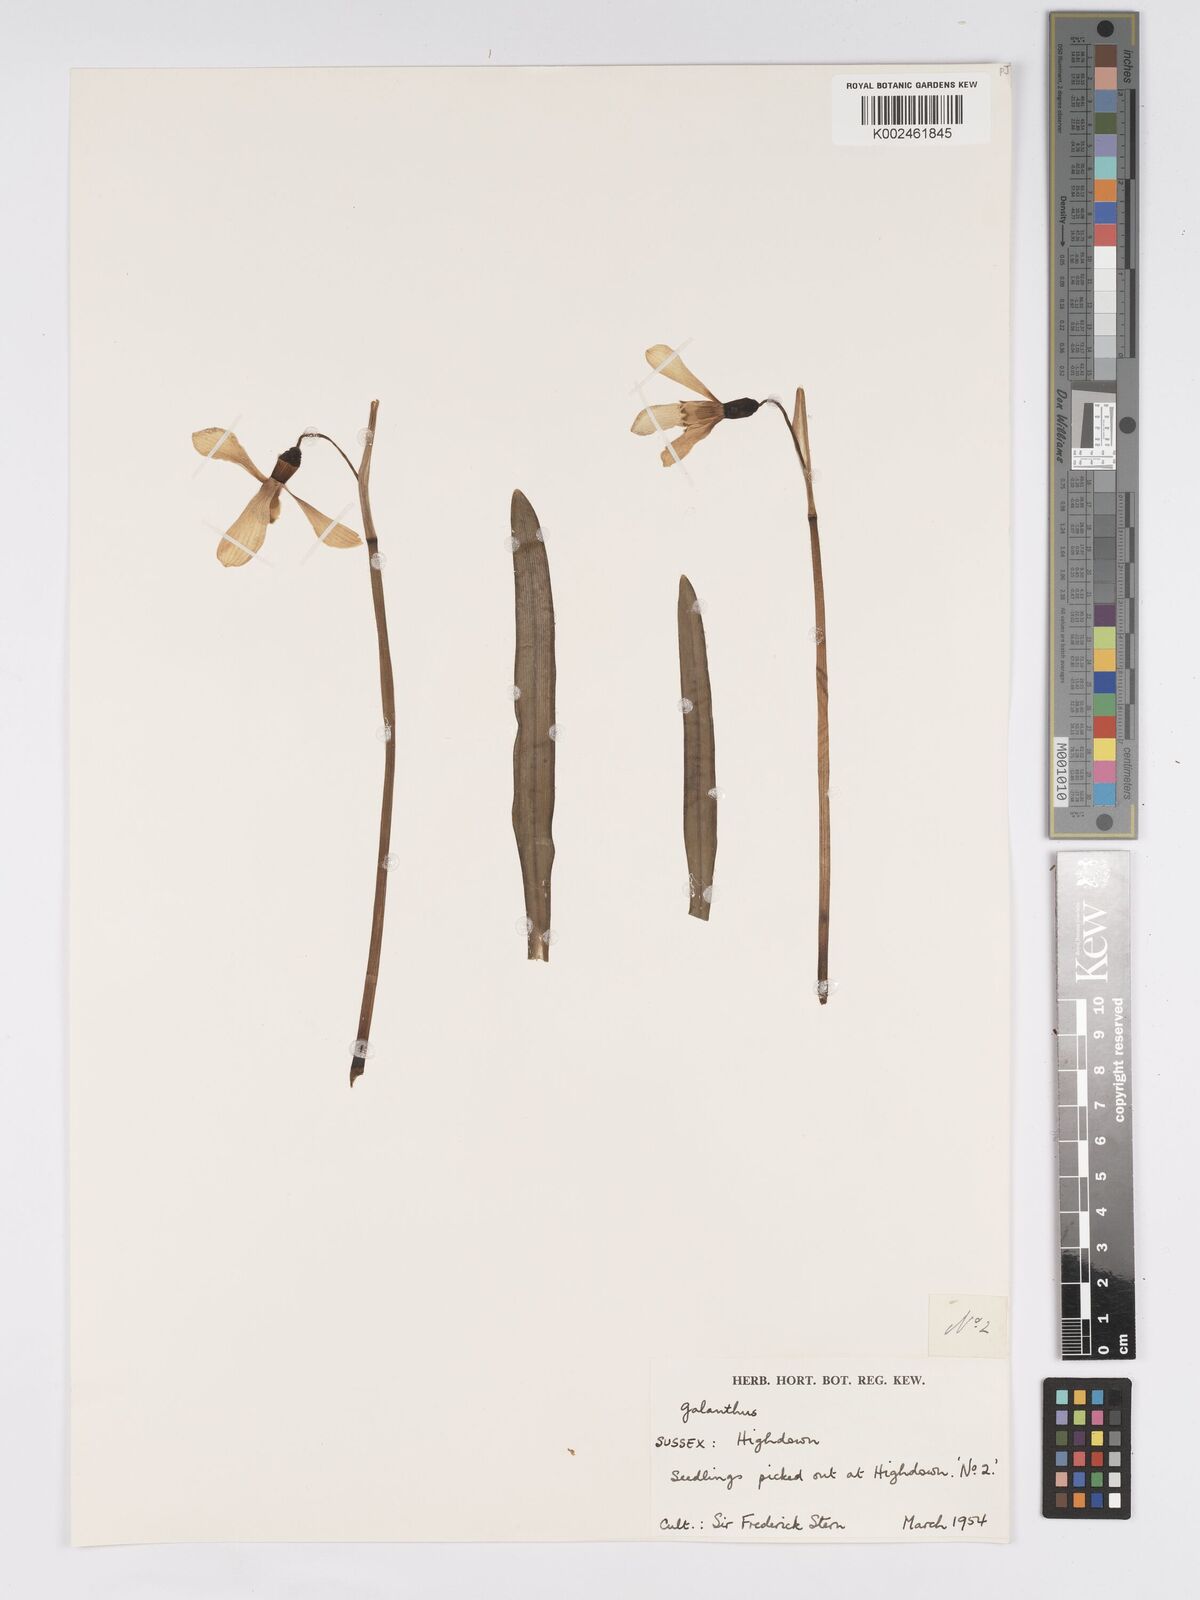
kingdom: Plantae
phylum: Tracheophyta
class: Liliopsida
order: Asparagales
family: Amaryllidaceae
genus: Galanthus
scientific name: Galanthus
